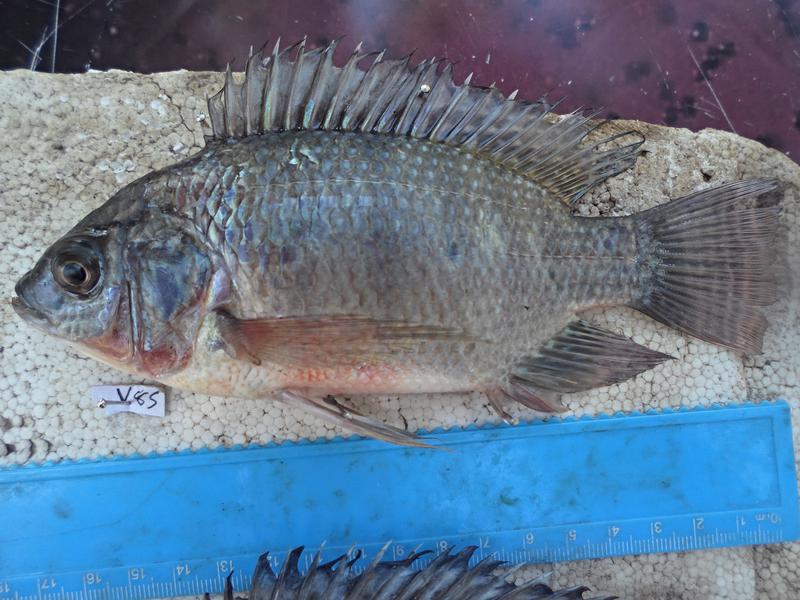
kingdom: Animalia
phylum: Chordata
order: Perciformes
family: Cichlidae
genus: Oreochromis
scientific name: Oreochromis niloticus
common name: Nile tilapia
